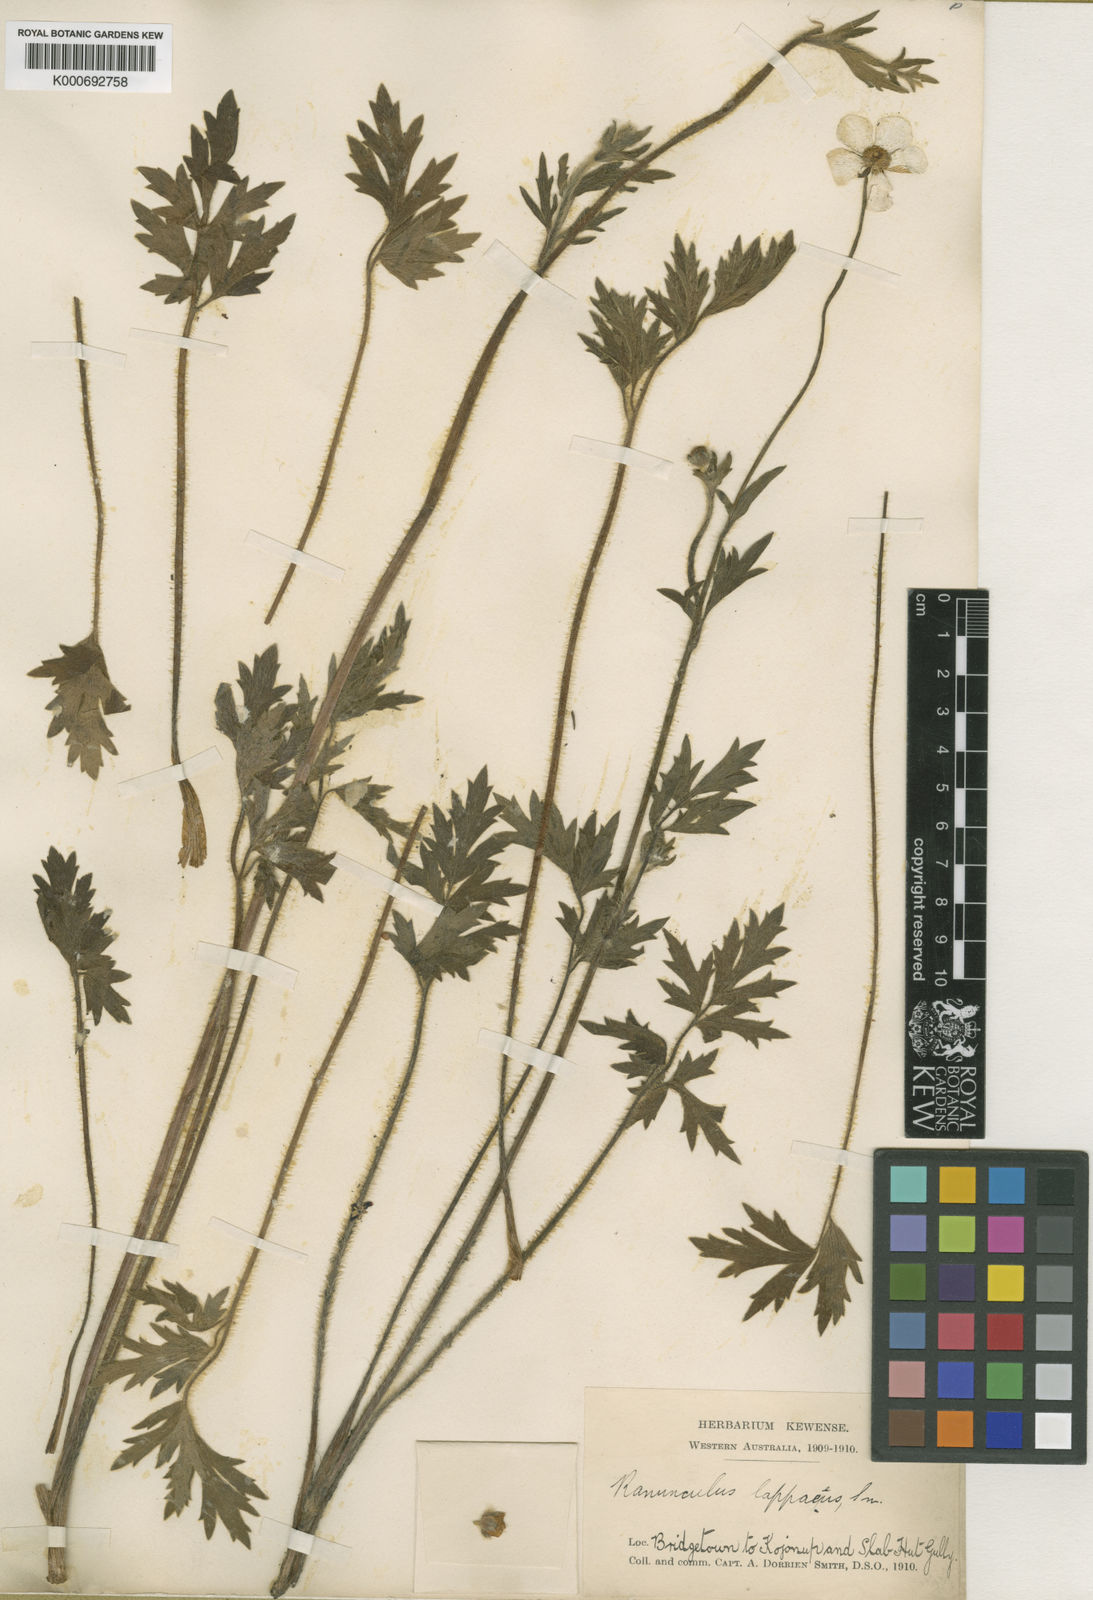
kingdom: Plantae
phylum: Tracheophyta
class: Magnoliopsida
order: Ranunculales
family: Ranunculaceae
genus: Ranunculus
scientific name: Ranunculus lappaceus
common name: Australian buttercup
